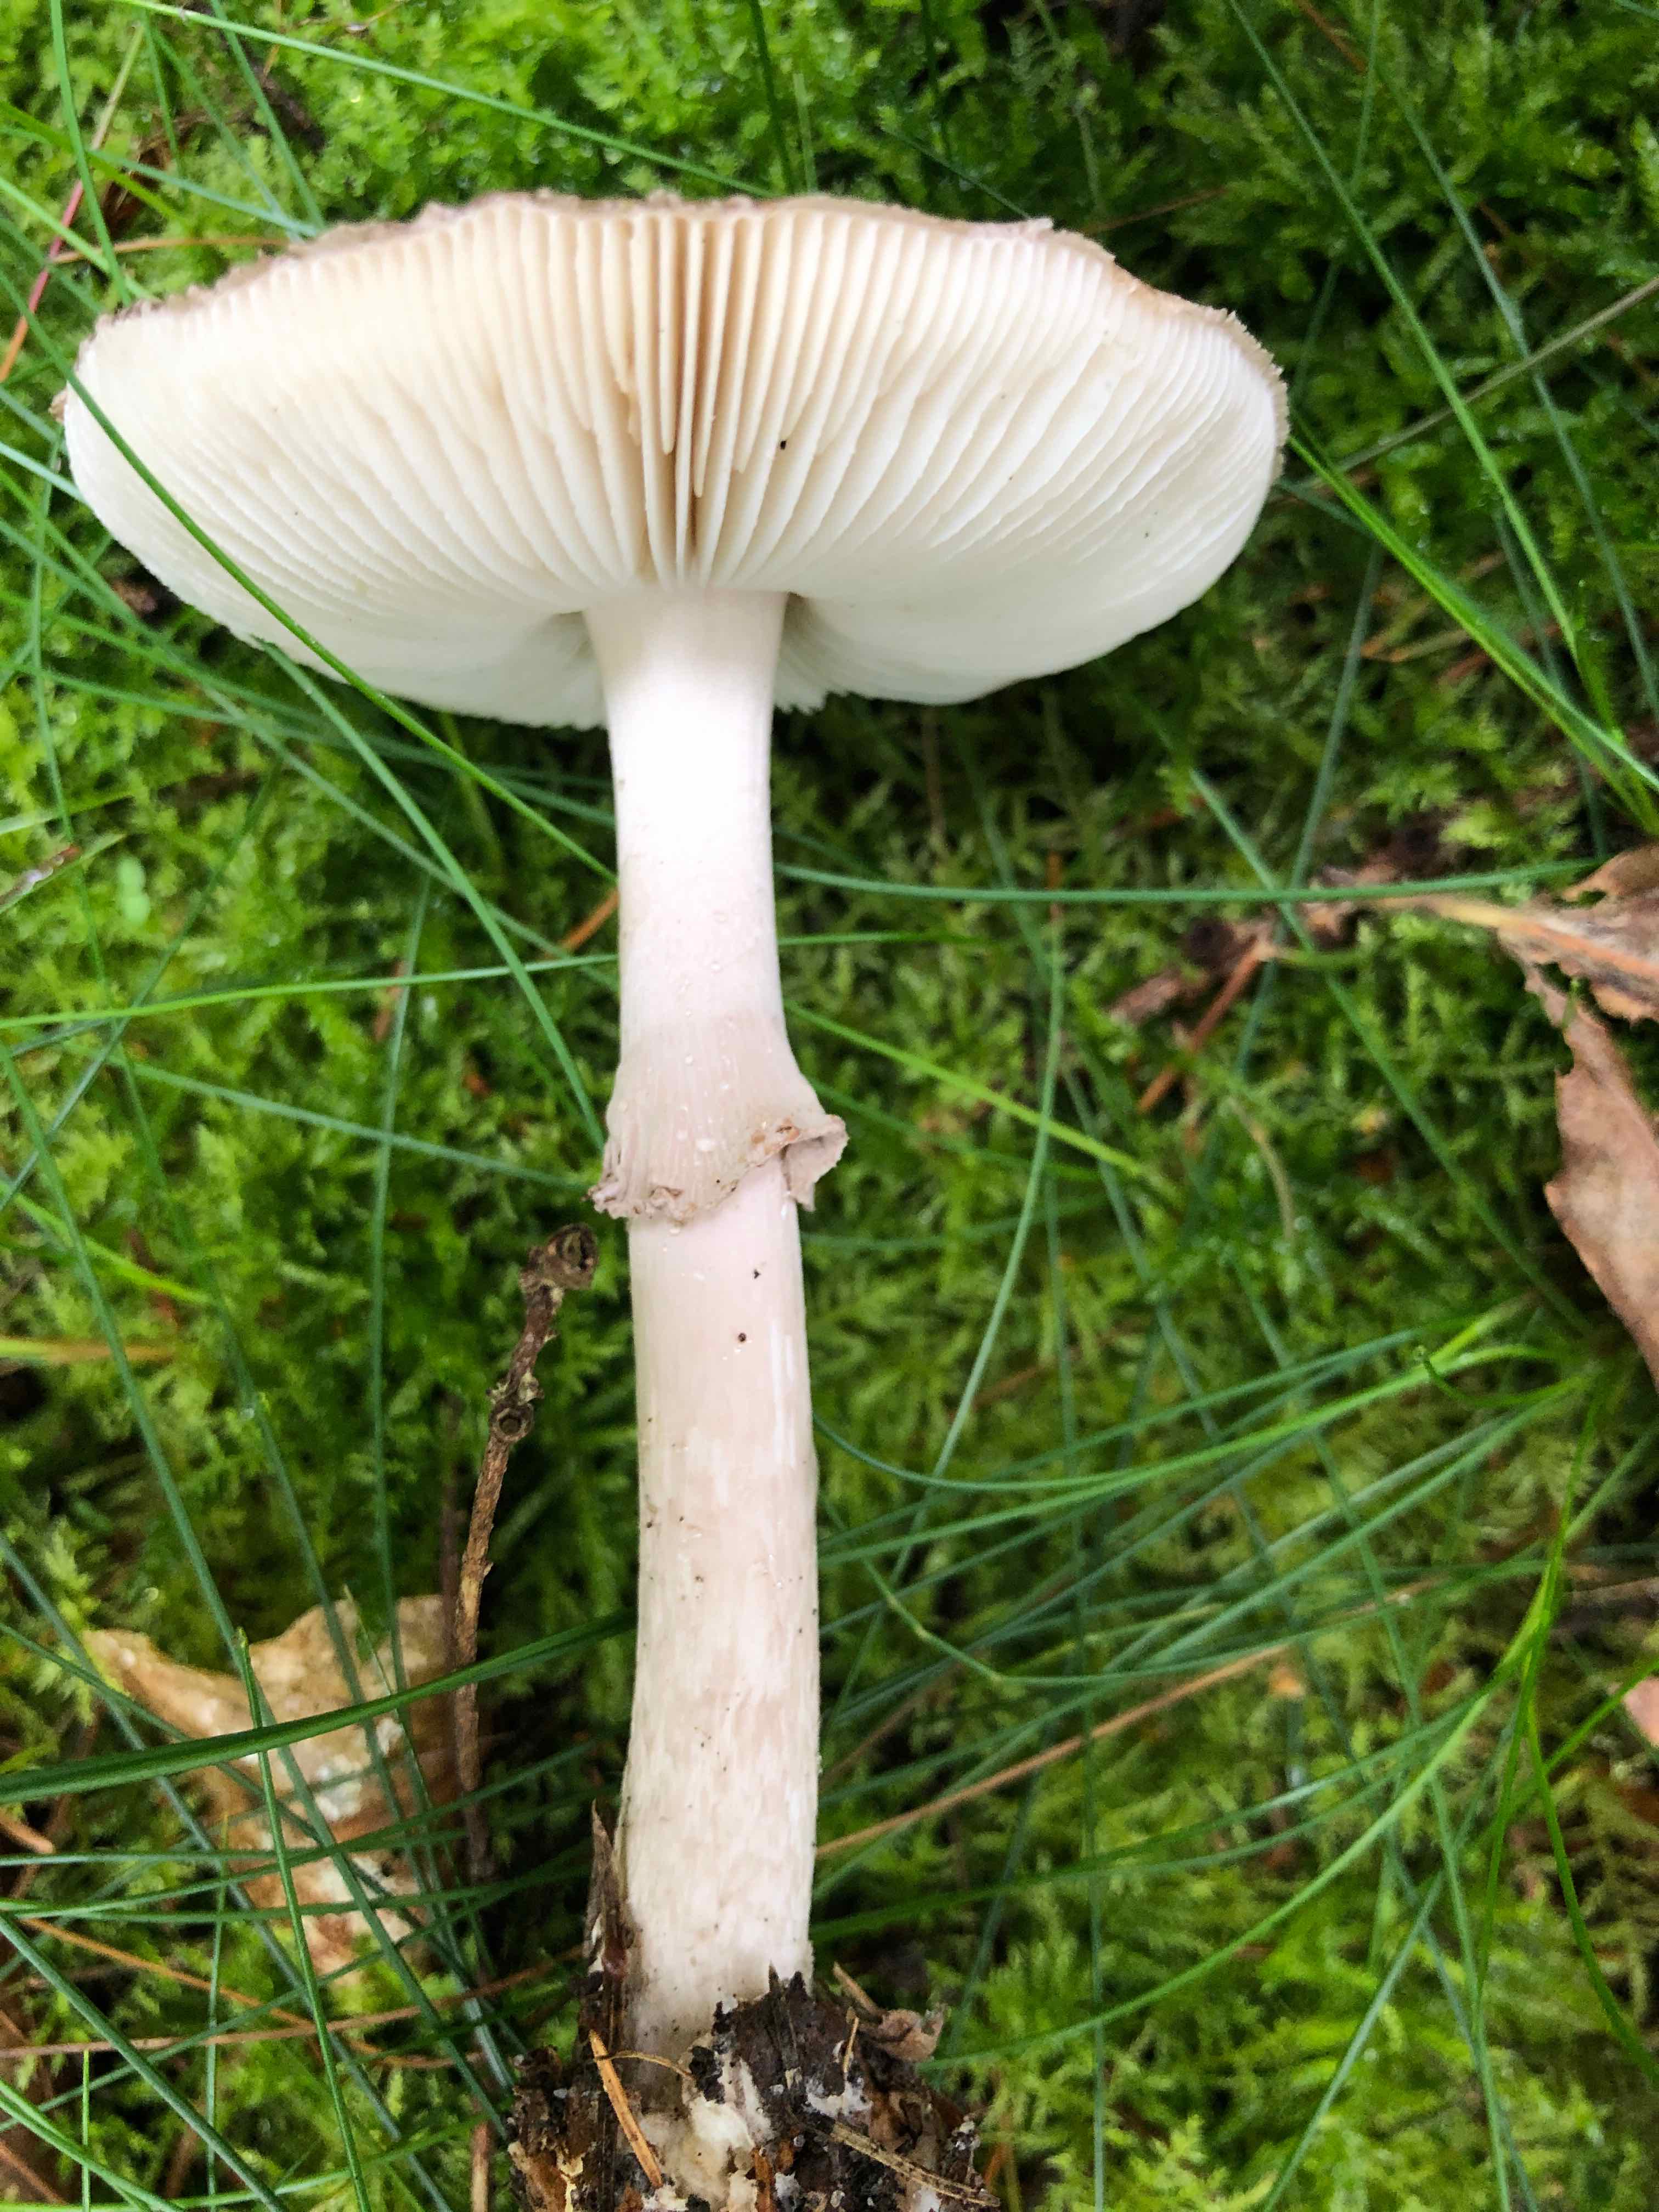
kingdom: Fungi
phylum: Basidiomycota
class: Agaricomycetes
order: Agaricales
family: Amanitaceae
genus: Amanita
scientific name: Amanita porphyria
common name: porfyr-fluesvamp
